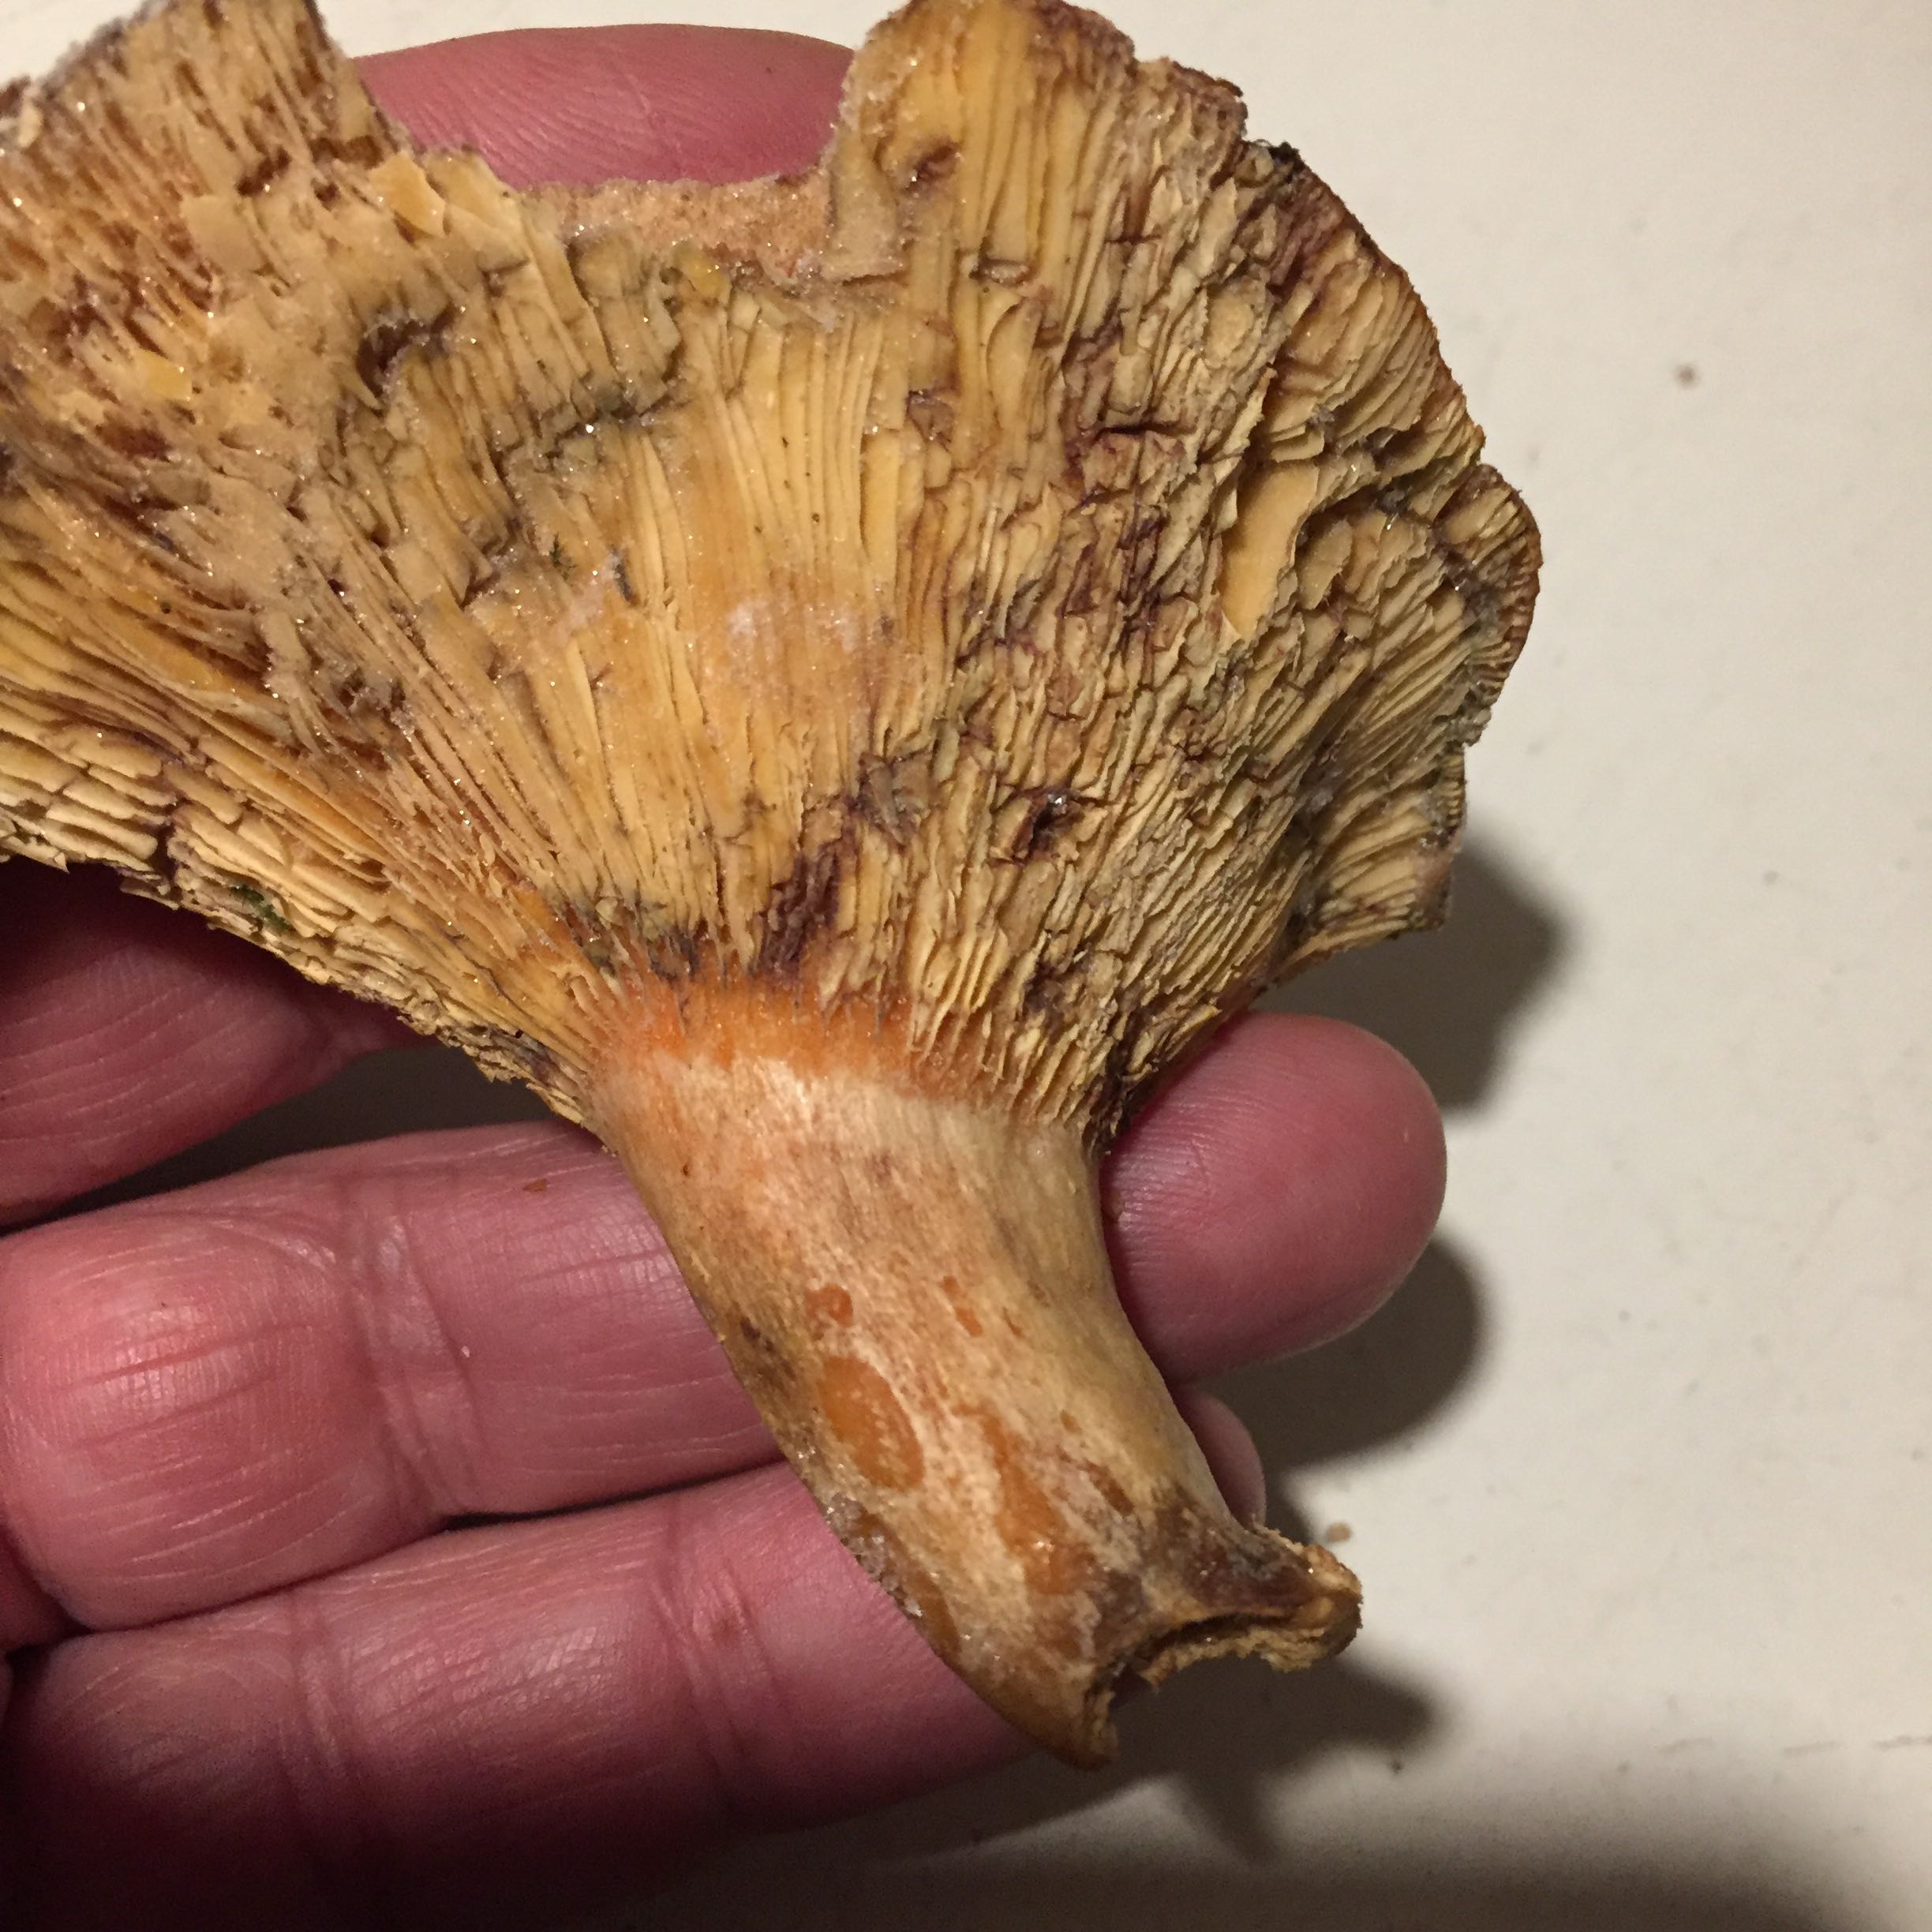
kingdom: Fungi
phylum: Basidiomycota
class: Agaricomycetes
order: Russulales
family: Russulaceae
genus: Lactarius
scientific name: Lactarius salmonicolor
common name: laksefarvet mælkehat
